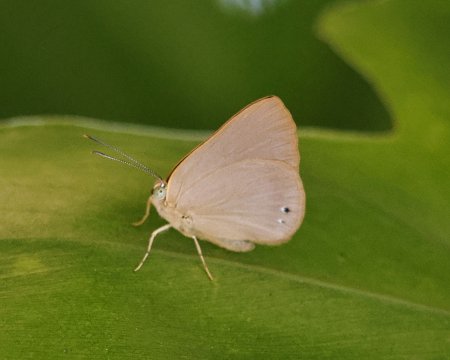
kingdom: Animalia
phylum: Arthropoda
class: Insecta
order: Lepidoptera
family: Nymphalidae
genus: Ethope
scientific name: Ethope
